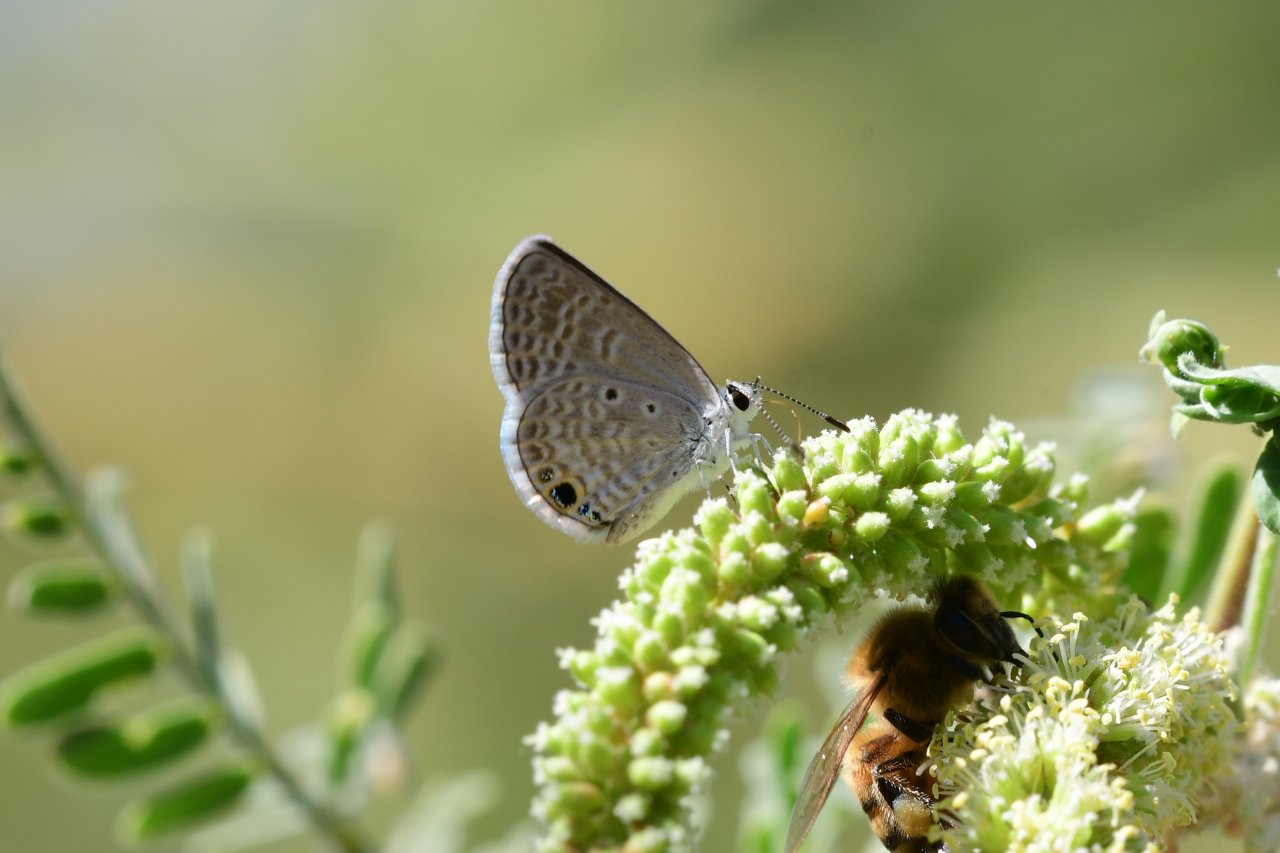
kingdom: Animalia
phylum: Arthropoda
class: Insecta
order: Lepidoptera
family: Lycaenidae
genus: Hemiargus
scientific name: Hemiargus ceraunus
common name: Ceraunus Blue
